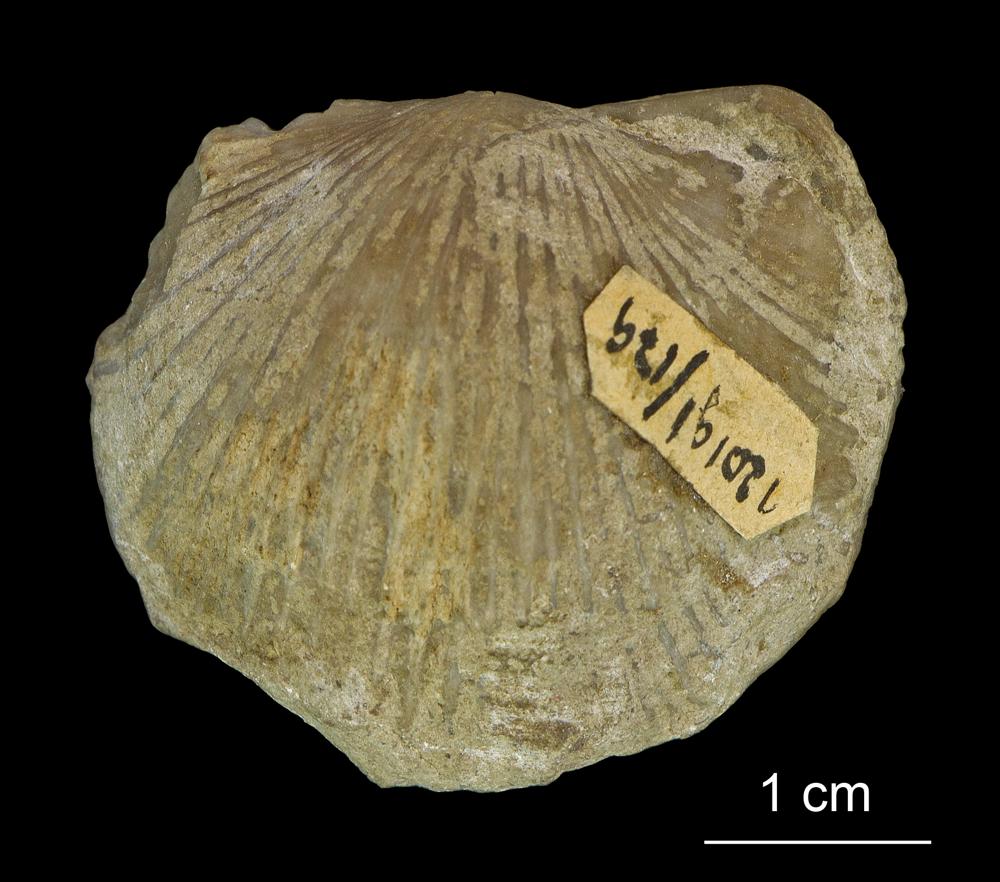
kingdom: Animalia
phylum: Brachiopoda
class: Rhynchonellata
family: Plaesiomyidae
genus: Plaesiomys
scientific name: Plaesiomys
